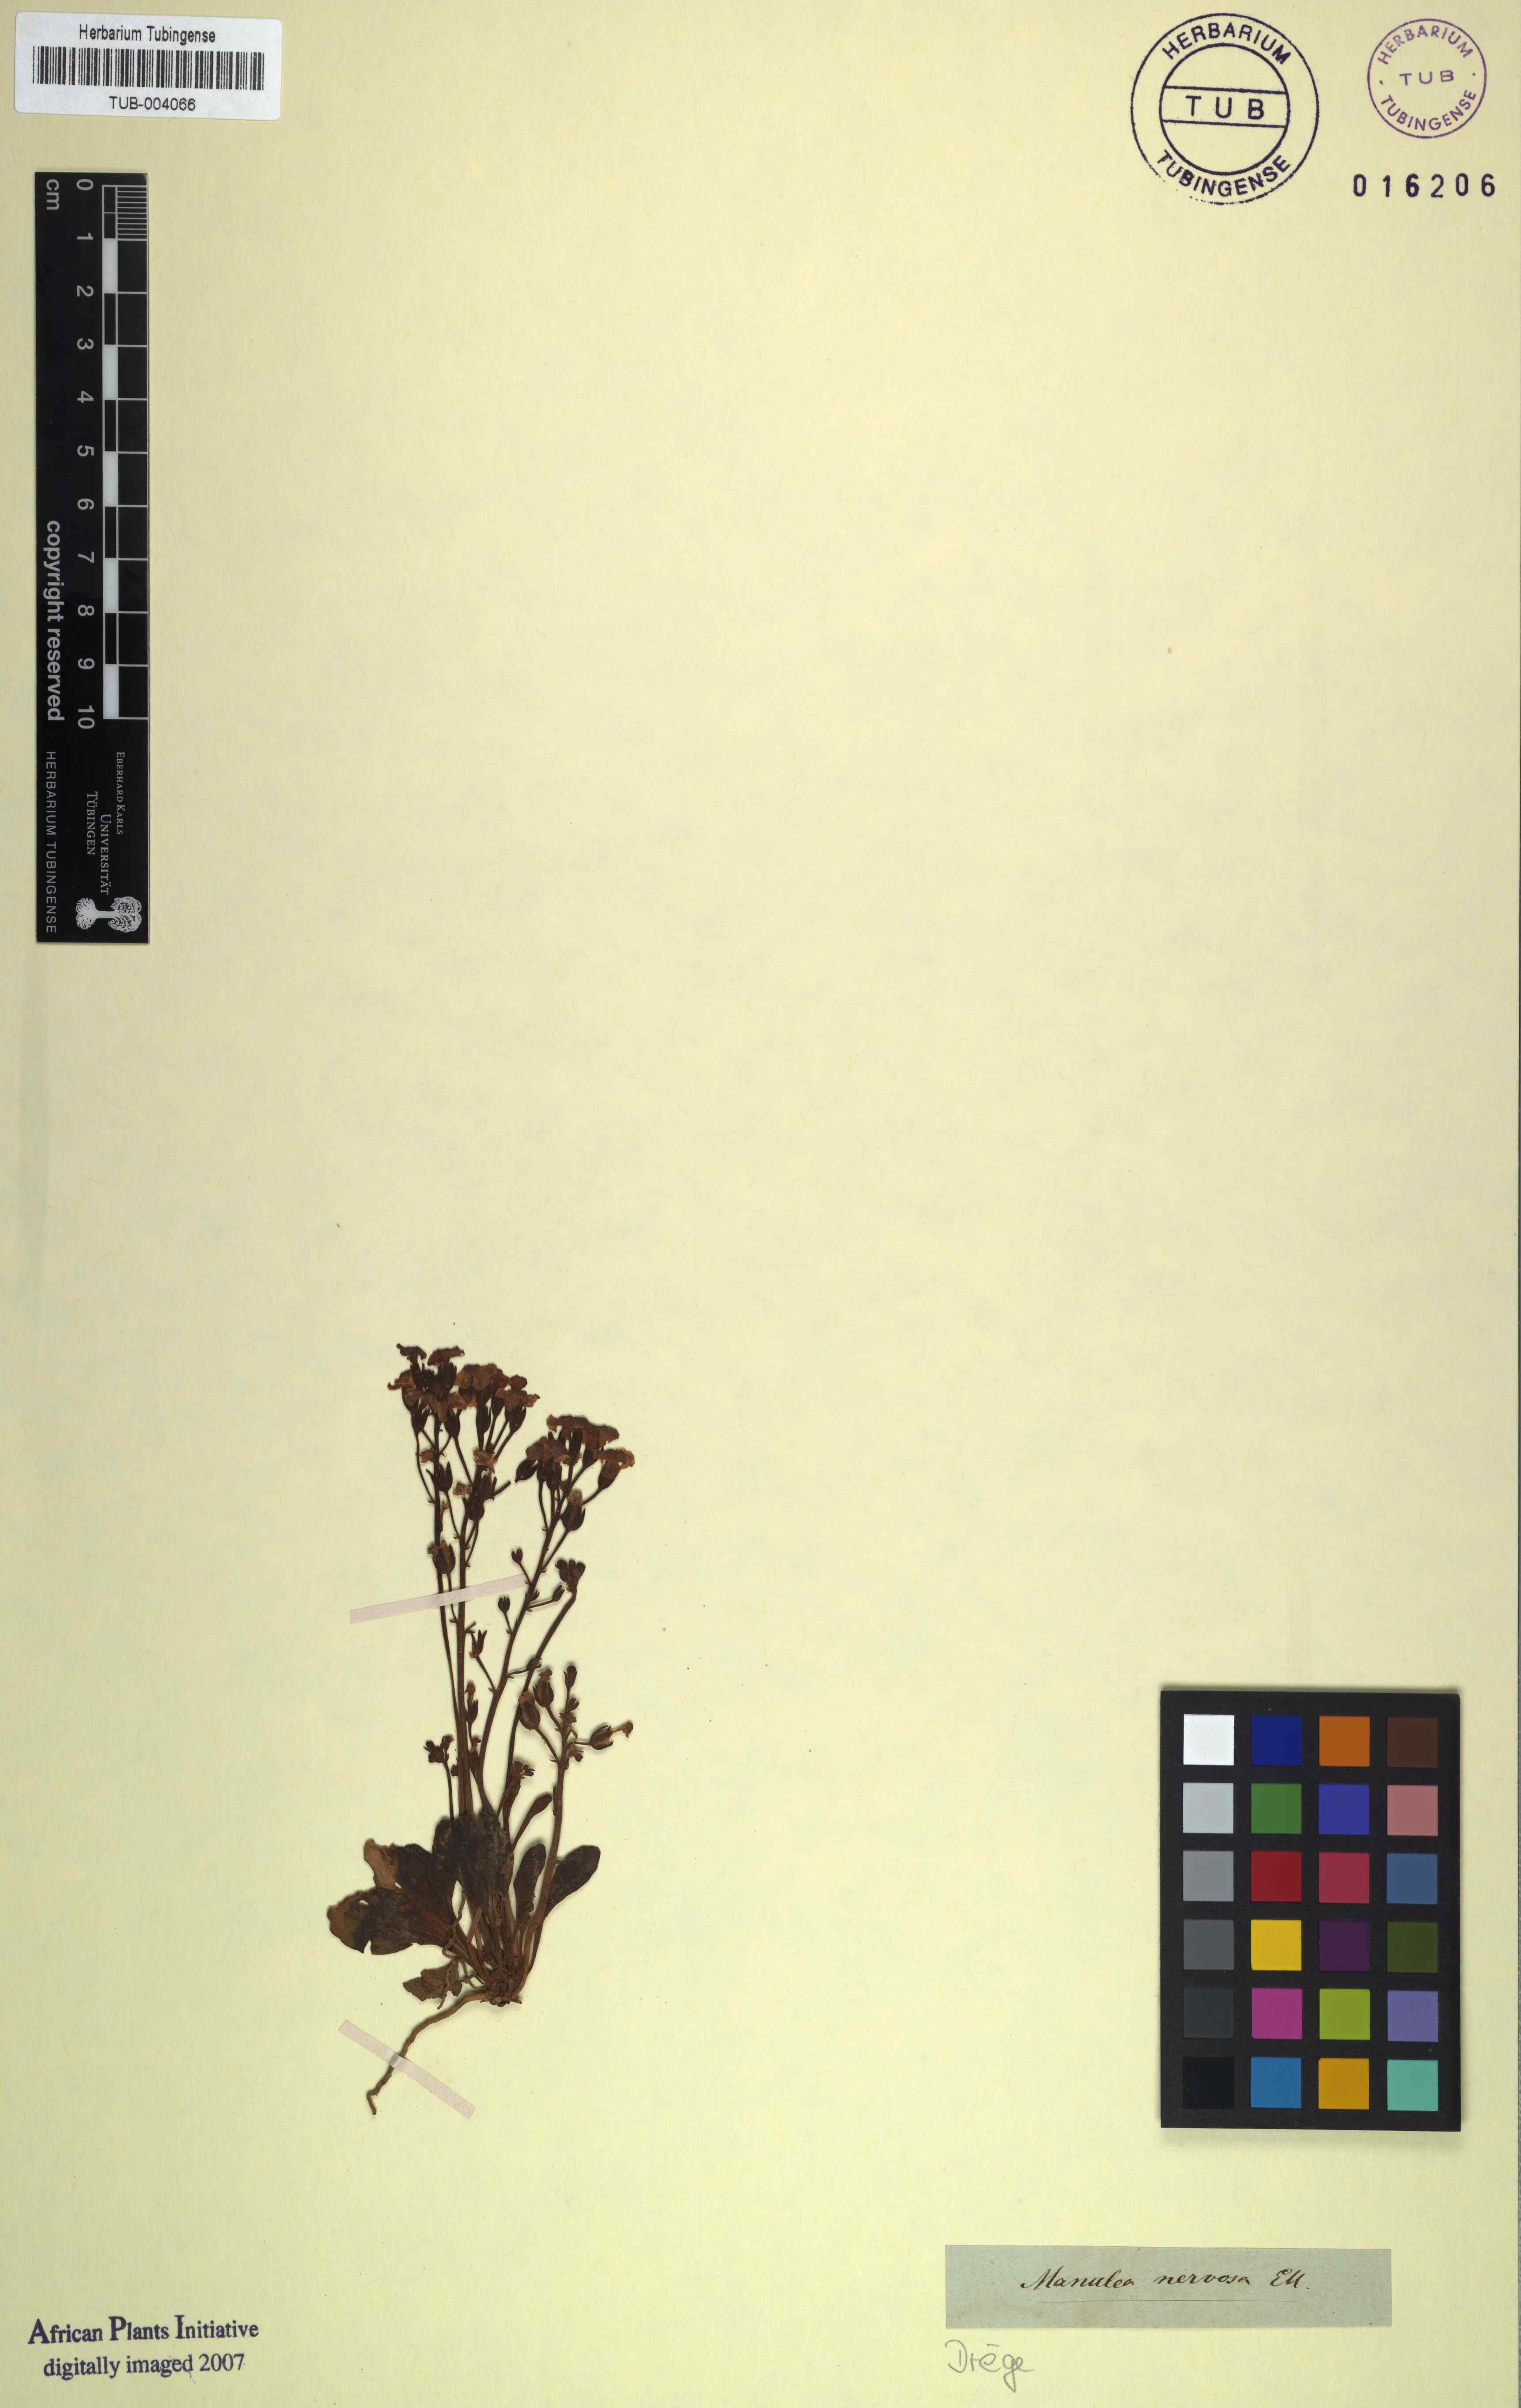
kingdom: Plantae
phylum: Tracheophyta
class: Magnoliopsida
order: Lamiales
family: Scrophulariaceae
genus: Manulea
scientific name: Manulea nervosa
